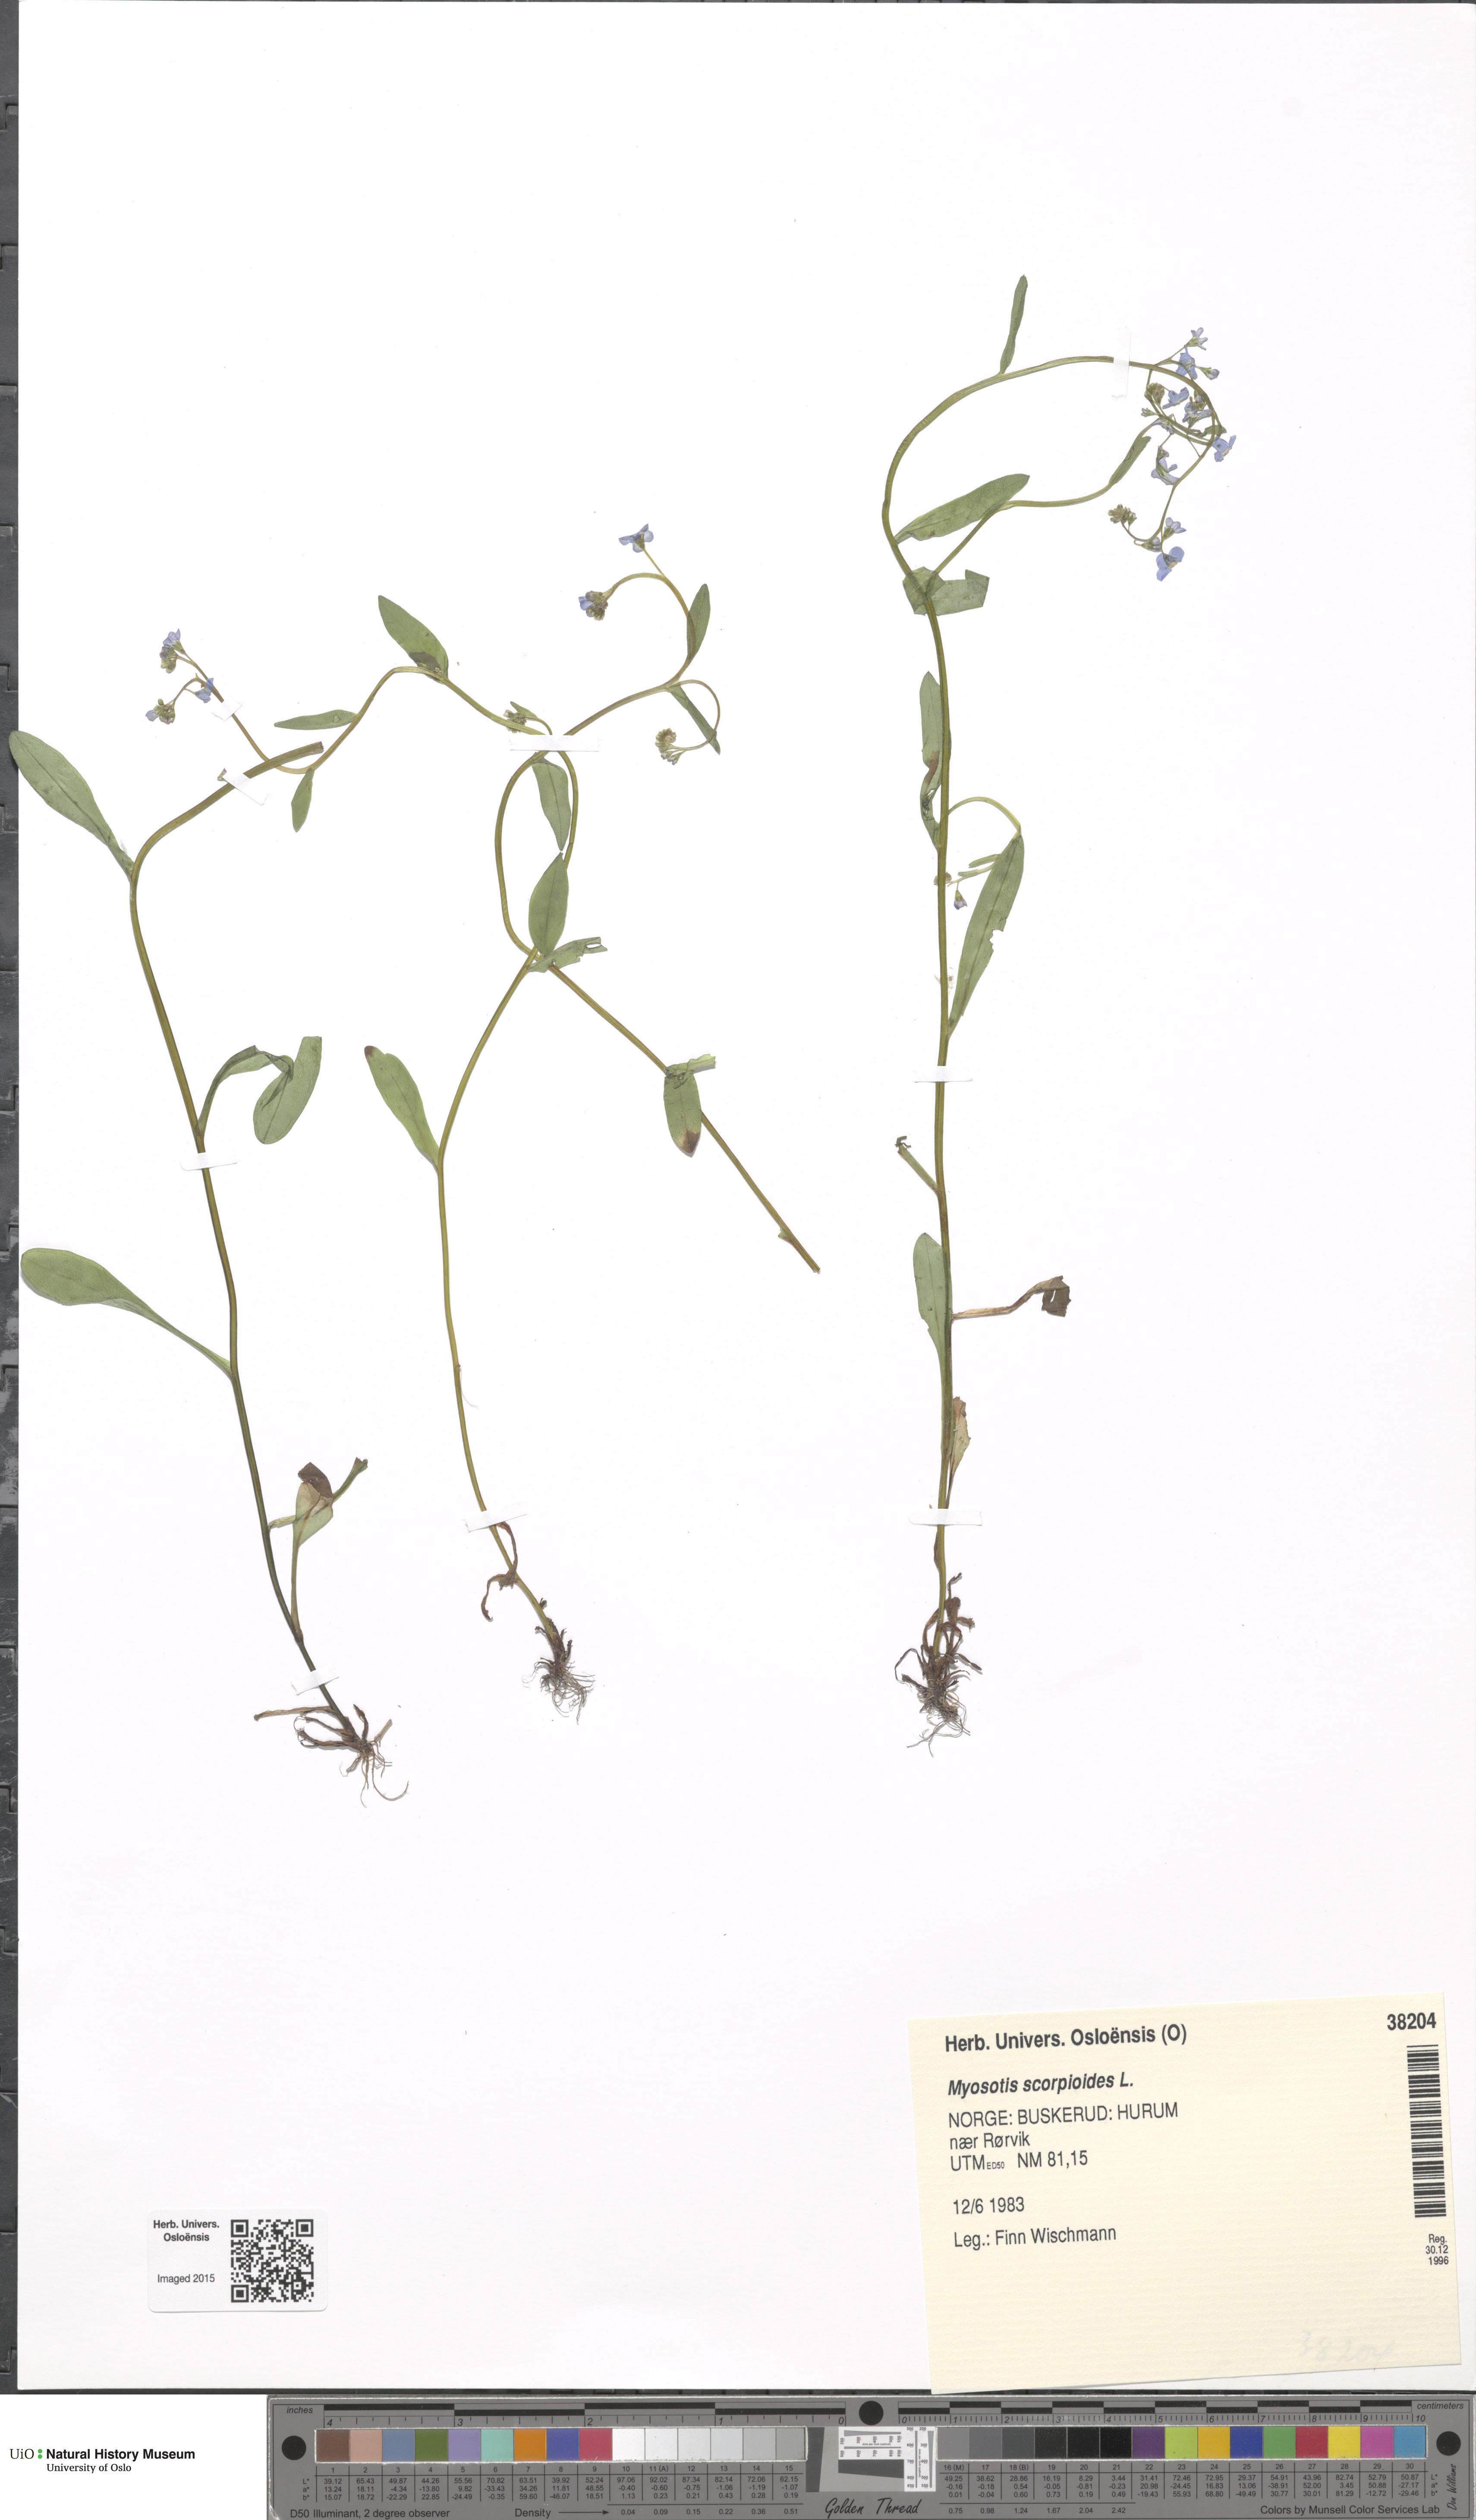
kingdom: Plantae
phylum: Tracheophyta
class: Magnoliopsida
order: Boraginales
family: Boraginaceae
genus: Myosotis
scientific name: Myosotis scorpioides
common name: Water forget-me-not
